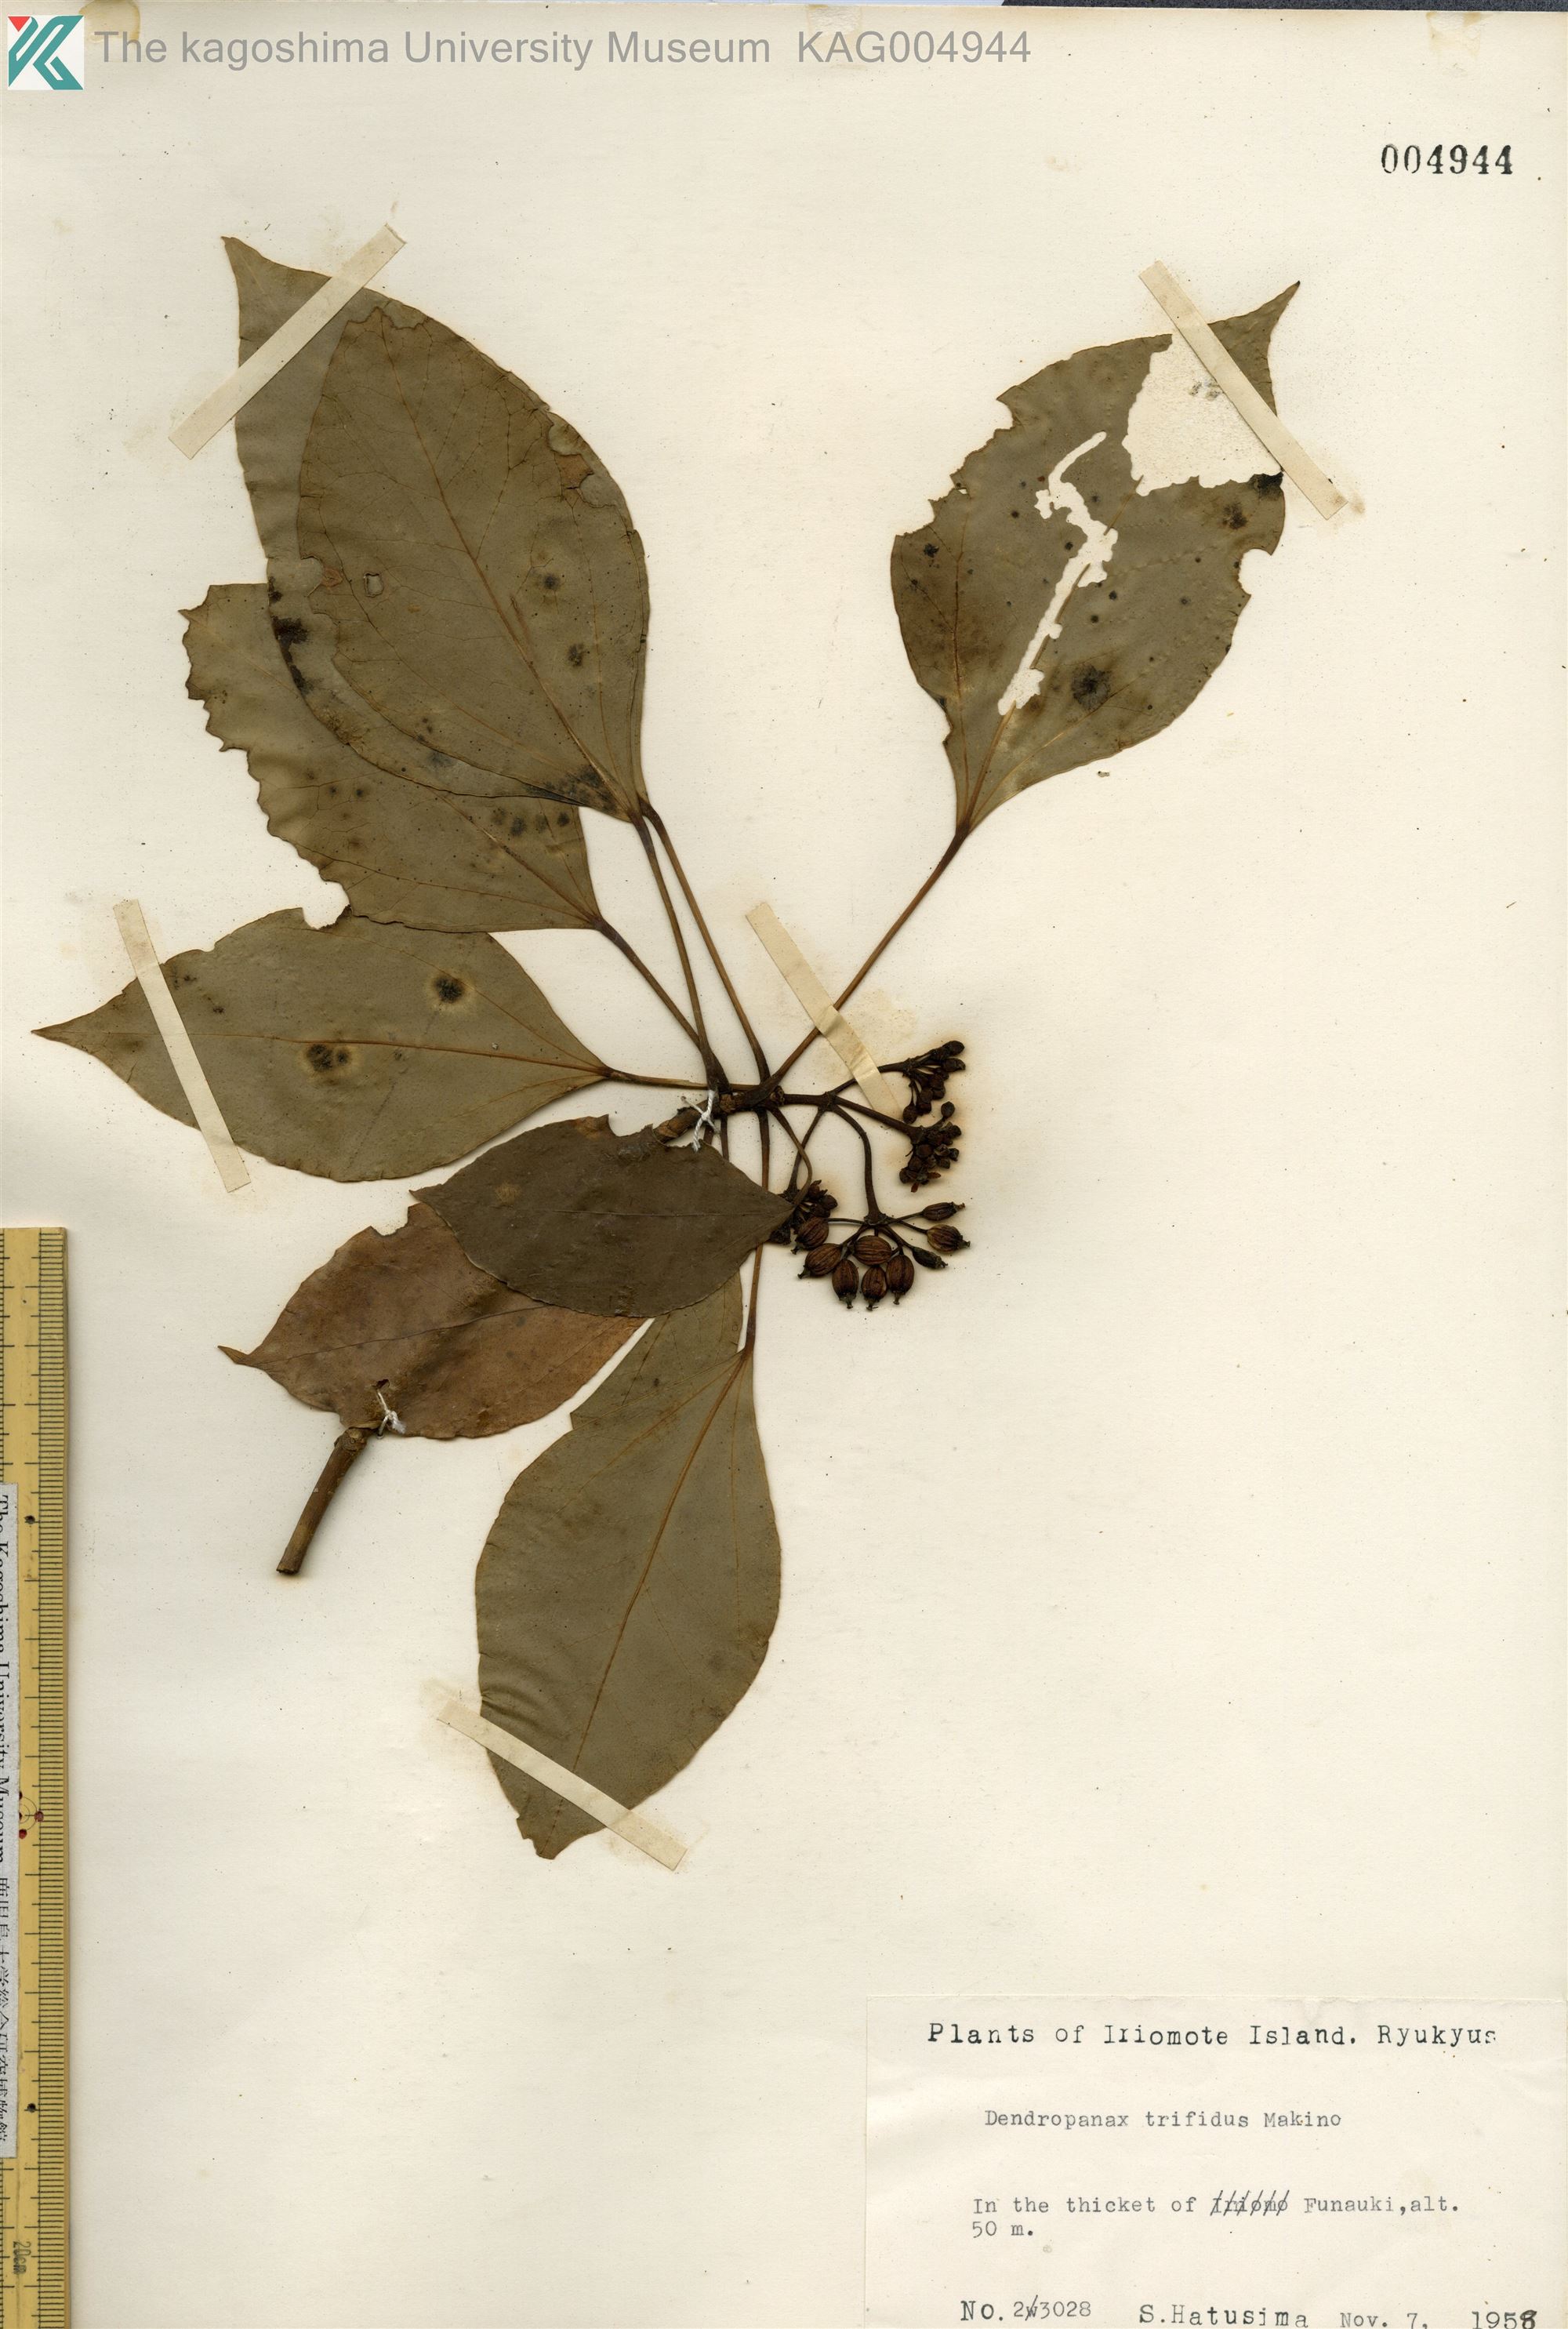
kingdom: Plantae
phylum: Tracheophyta
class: Magnoliopsida
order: Apiales
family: Araliaceae
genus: Dendropanax
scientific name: Dendropanax trifidus
